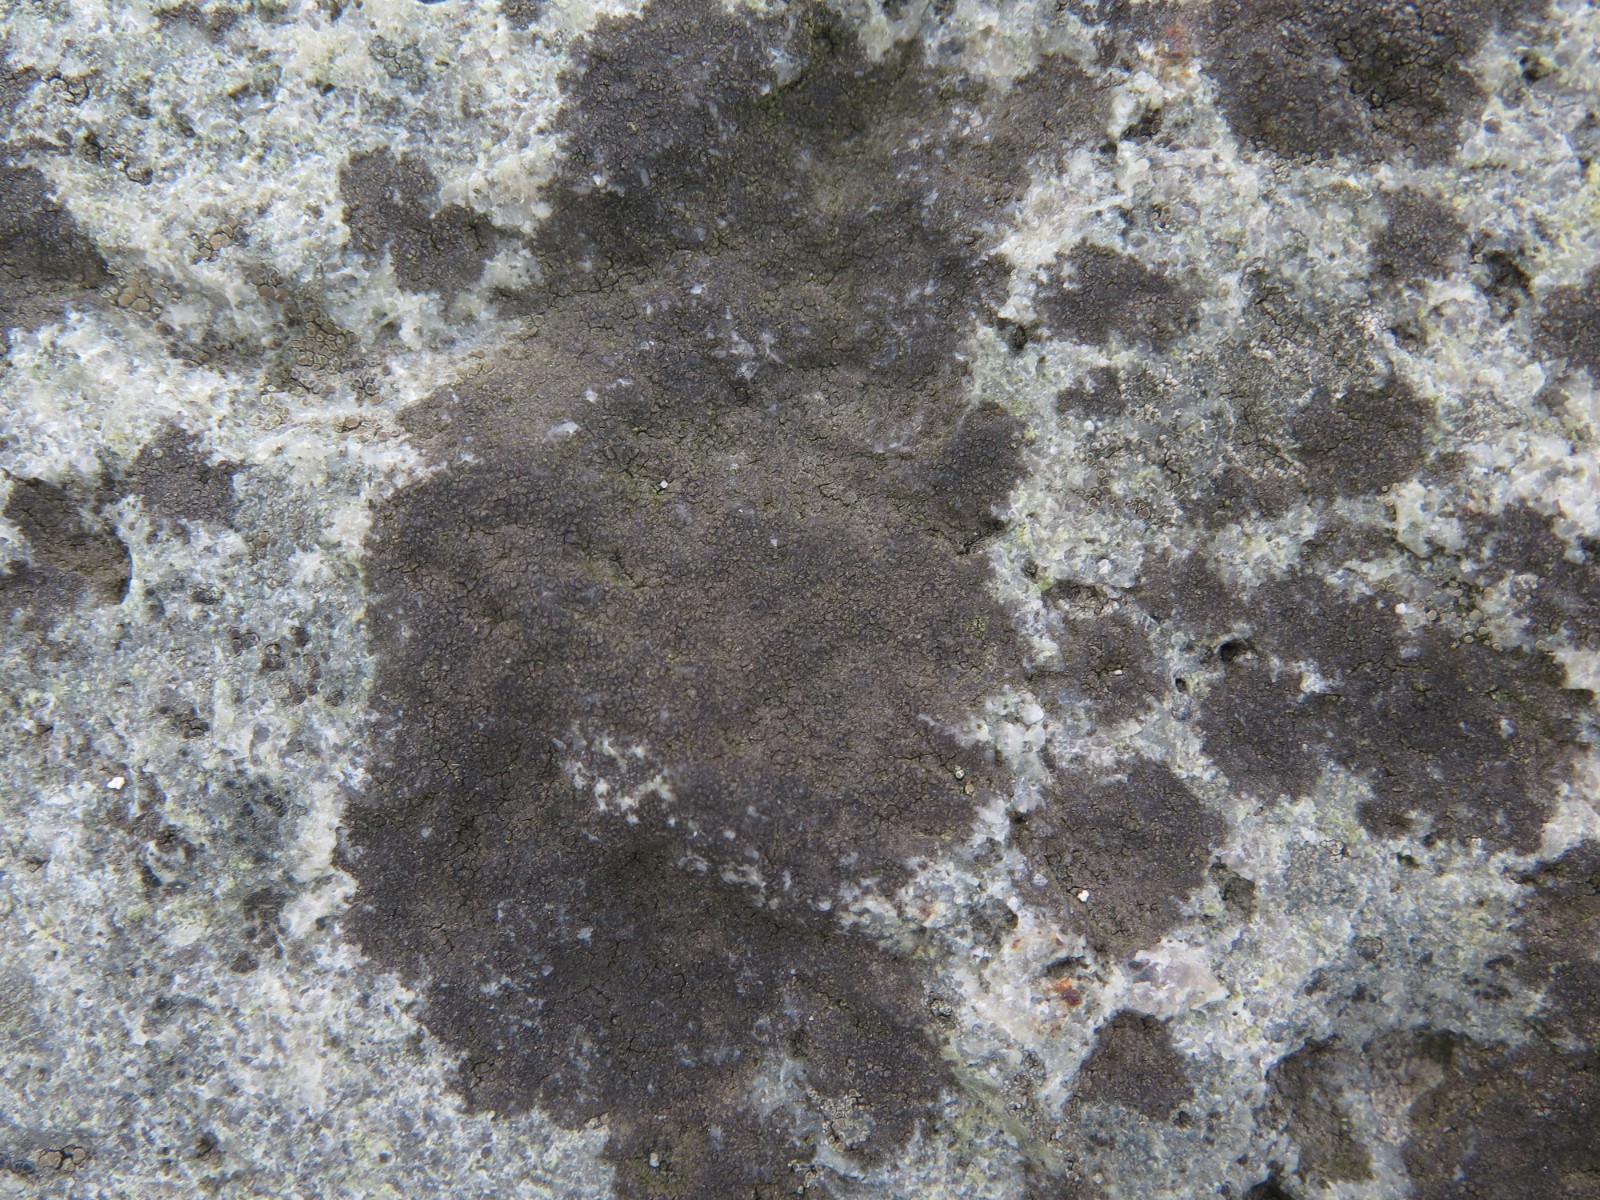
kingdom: Fungi
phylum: Ascomycota
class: Eurotiomycetes
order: Verrucariales
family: Verrucariaceae
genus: Verrucaria
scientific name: Verrucaria nigrescens
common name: sortbrun vortelav
